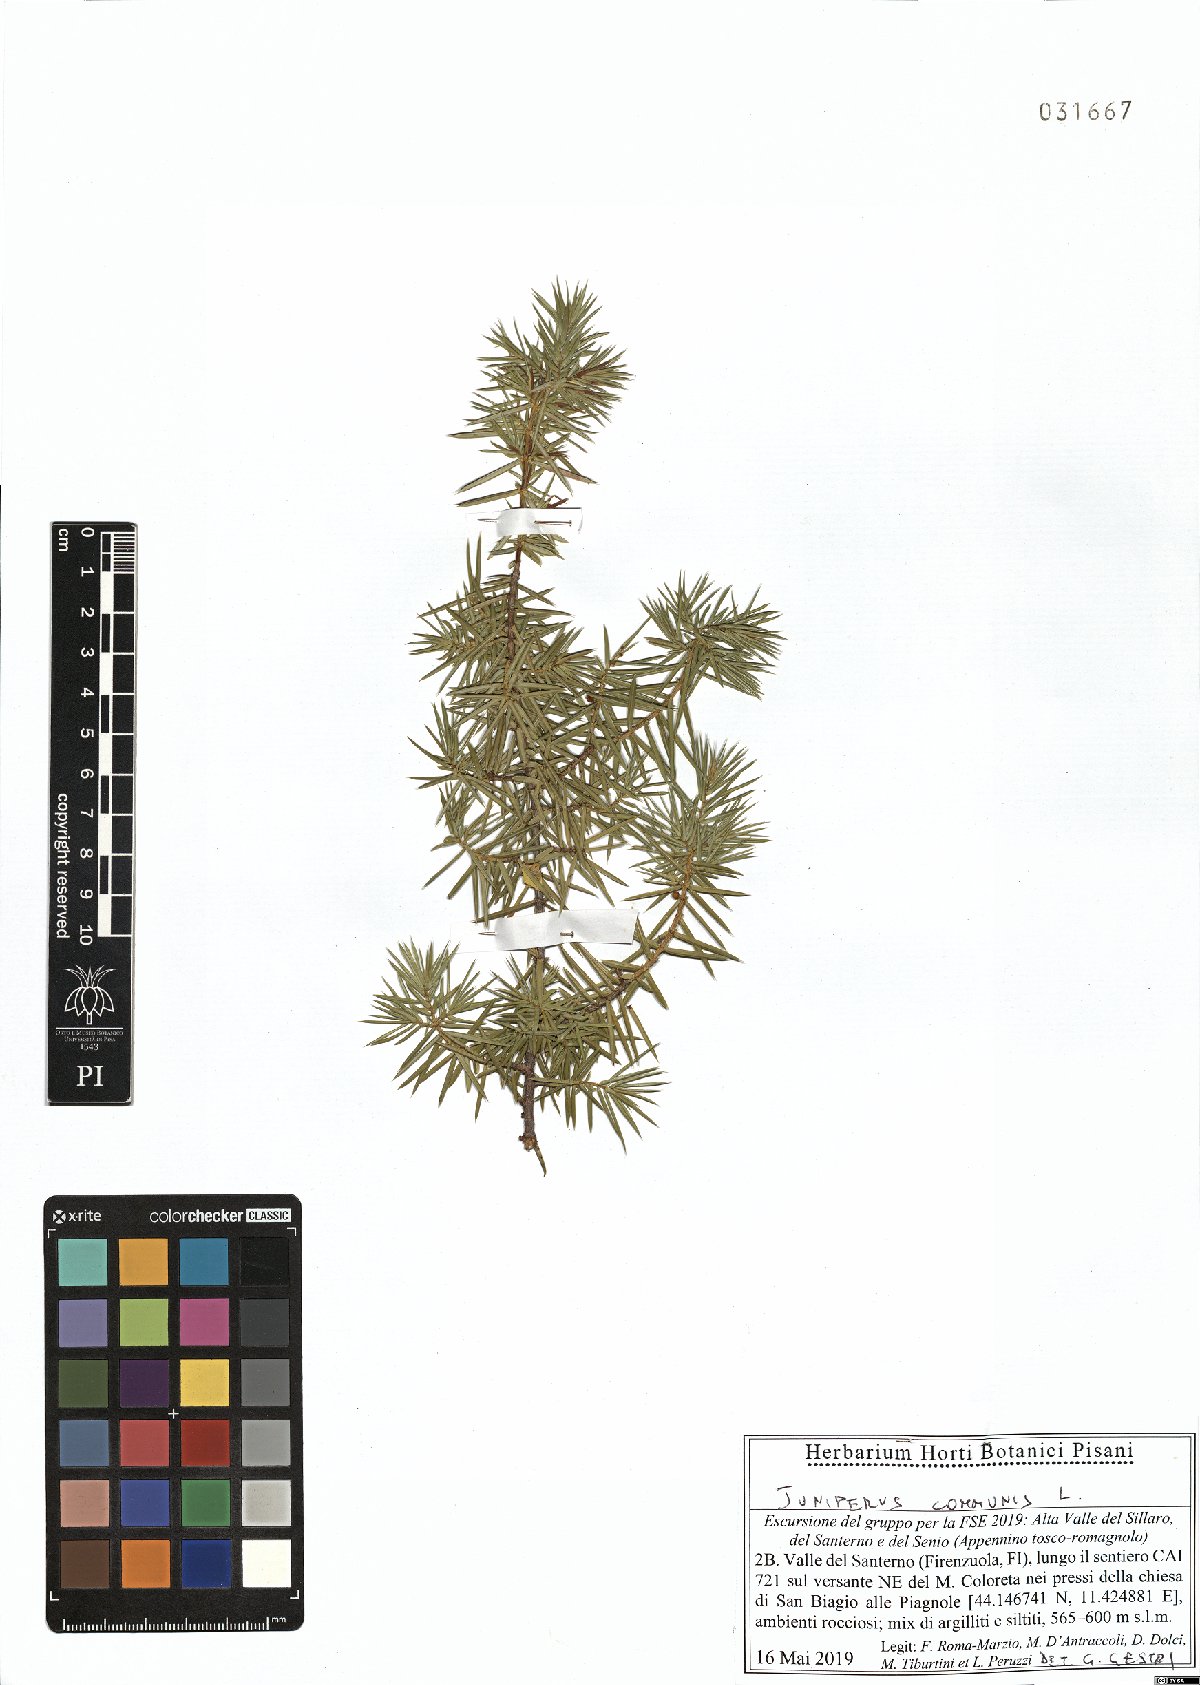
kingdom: Plantae
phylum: Tracheophyta
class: Pinopsida
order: Pinales
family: Cupressaceae
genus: Juniperus
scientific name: Juniperus communis
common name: Common juniper
